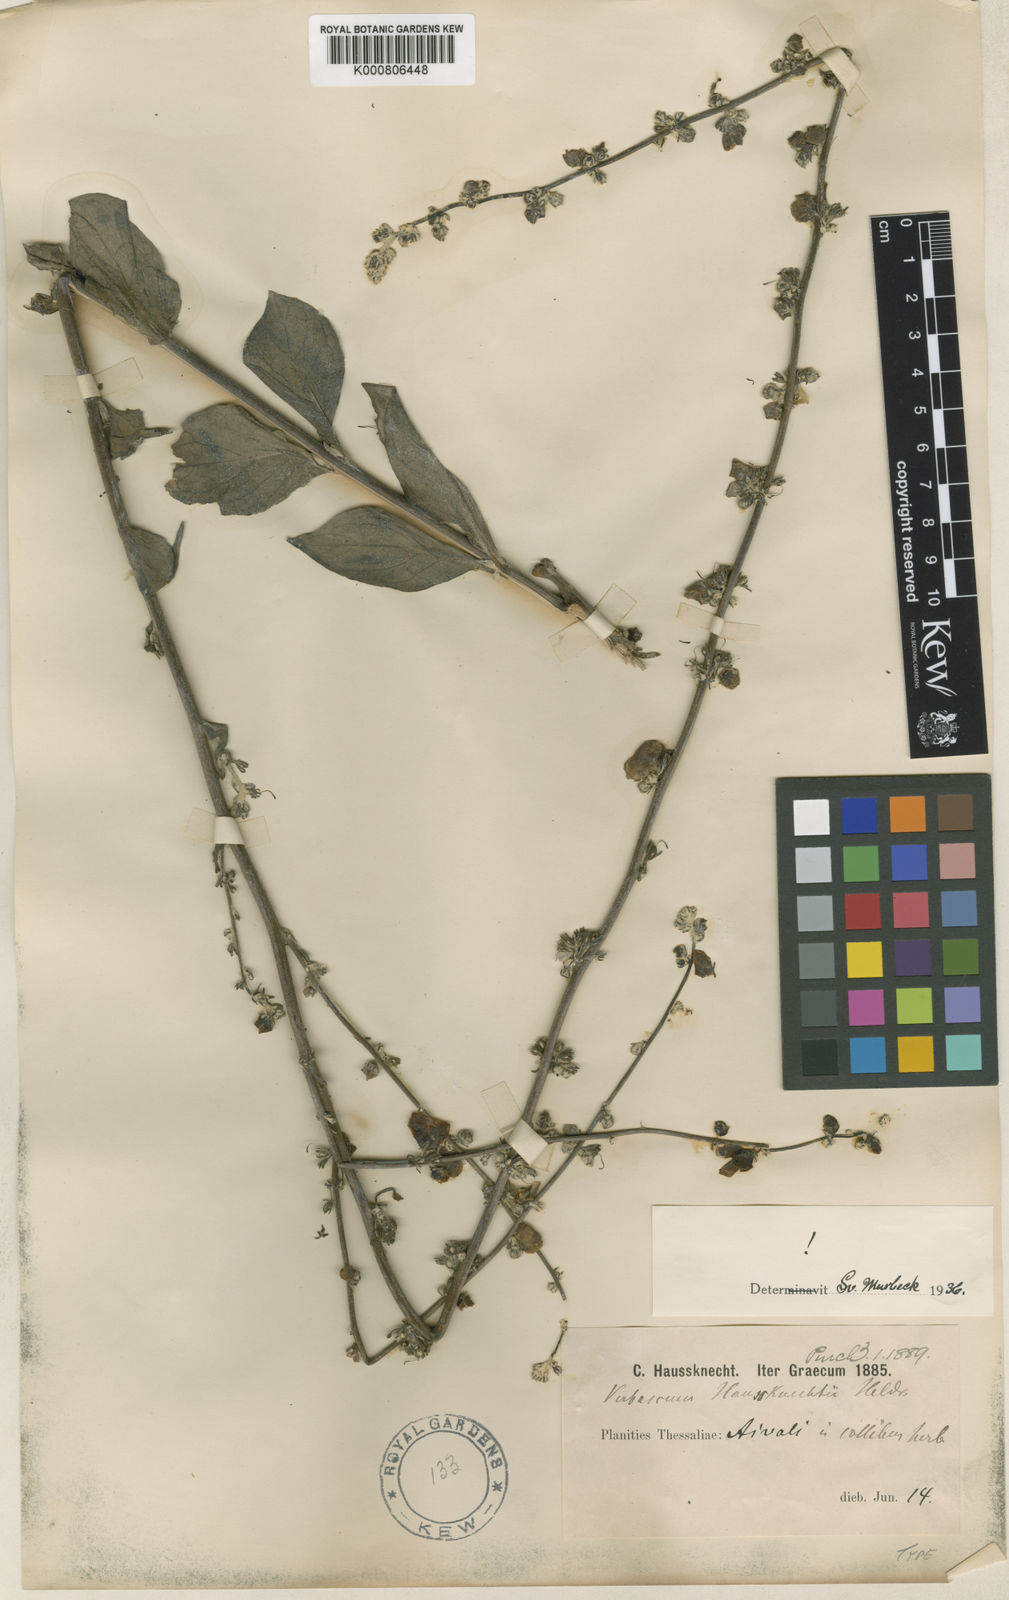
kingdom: Plantae
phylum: Tracheophyta
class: Magnoliopsida
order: Lamiales
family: Scrophulariaceae
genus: Verbascum
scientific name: Verbascum graecum
